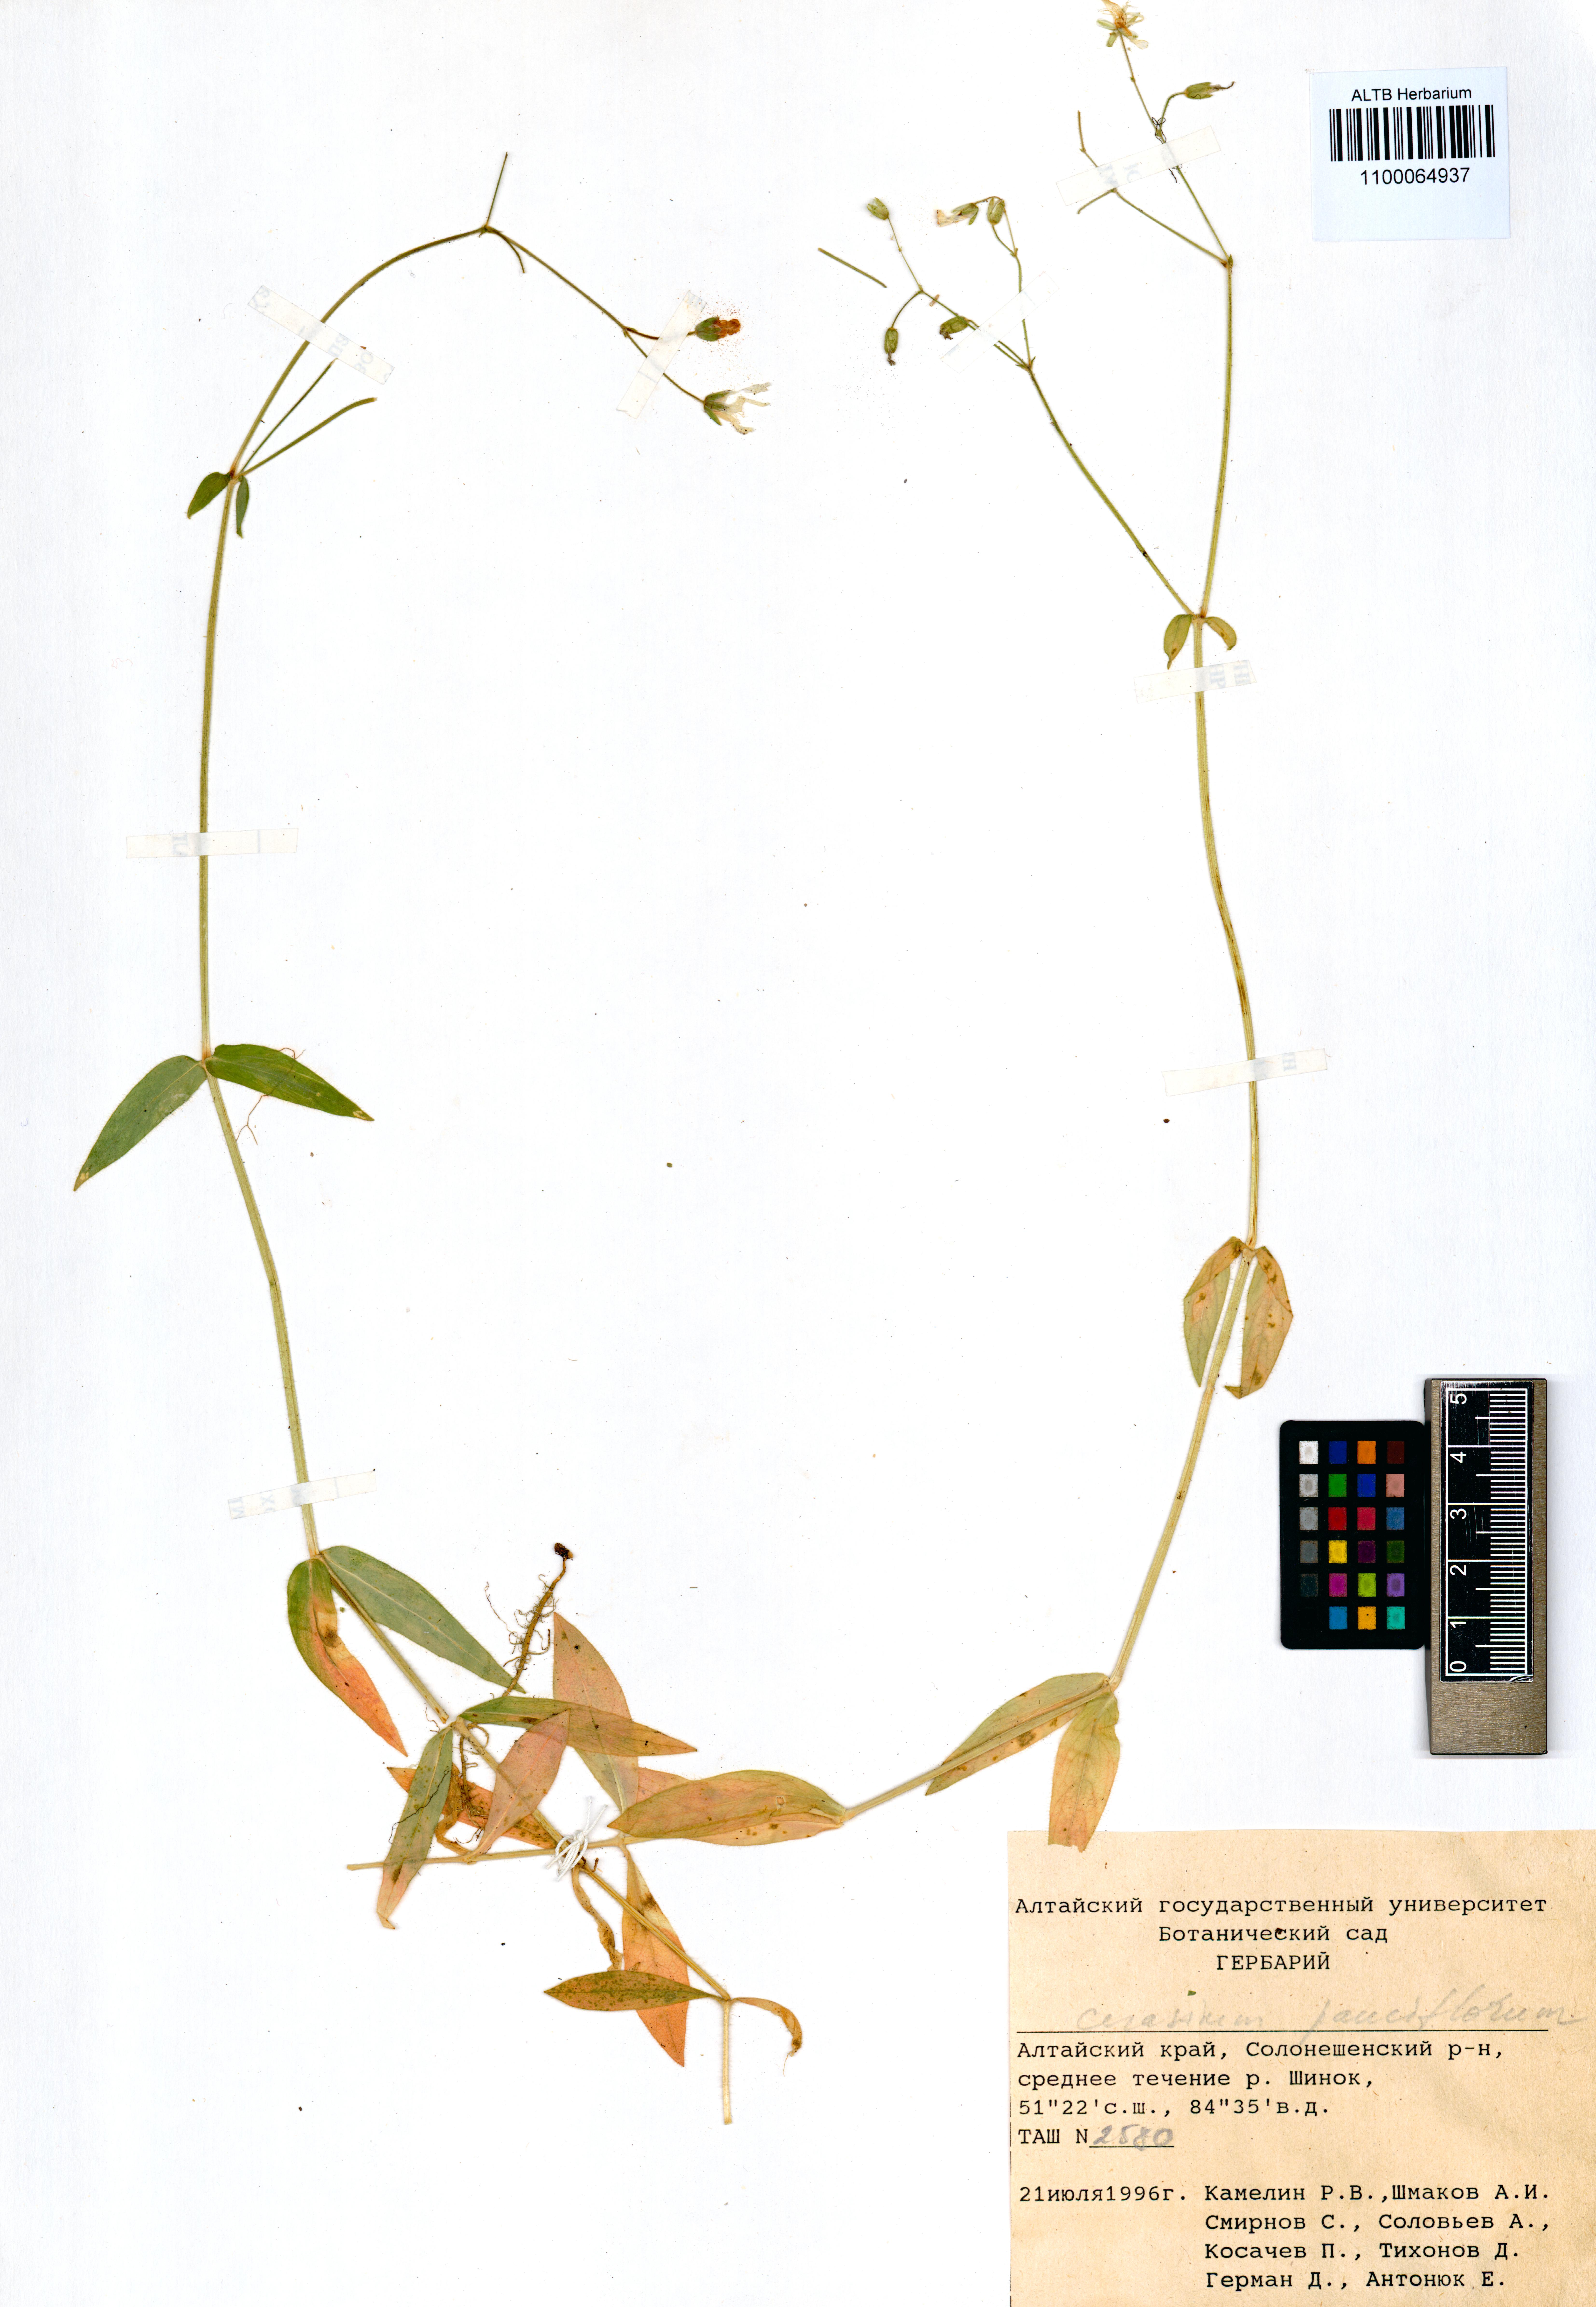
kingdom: Plantae
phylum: Tracheophyta
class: Magnoliopsida
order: Caryophyllales
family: Caryophyllaceae
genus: Cerastium
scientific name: Cerastium pauciflorum
